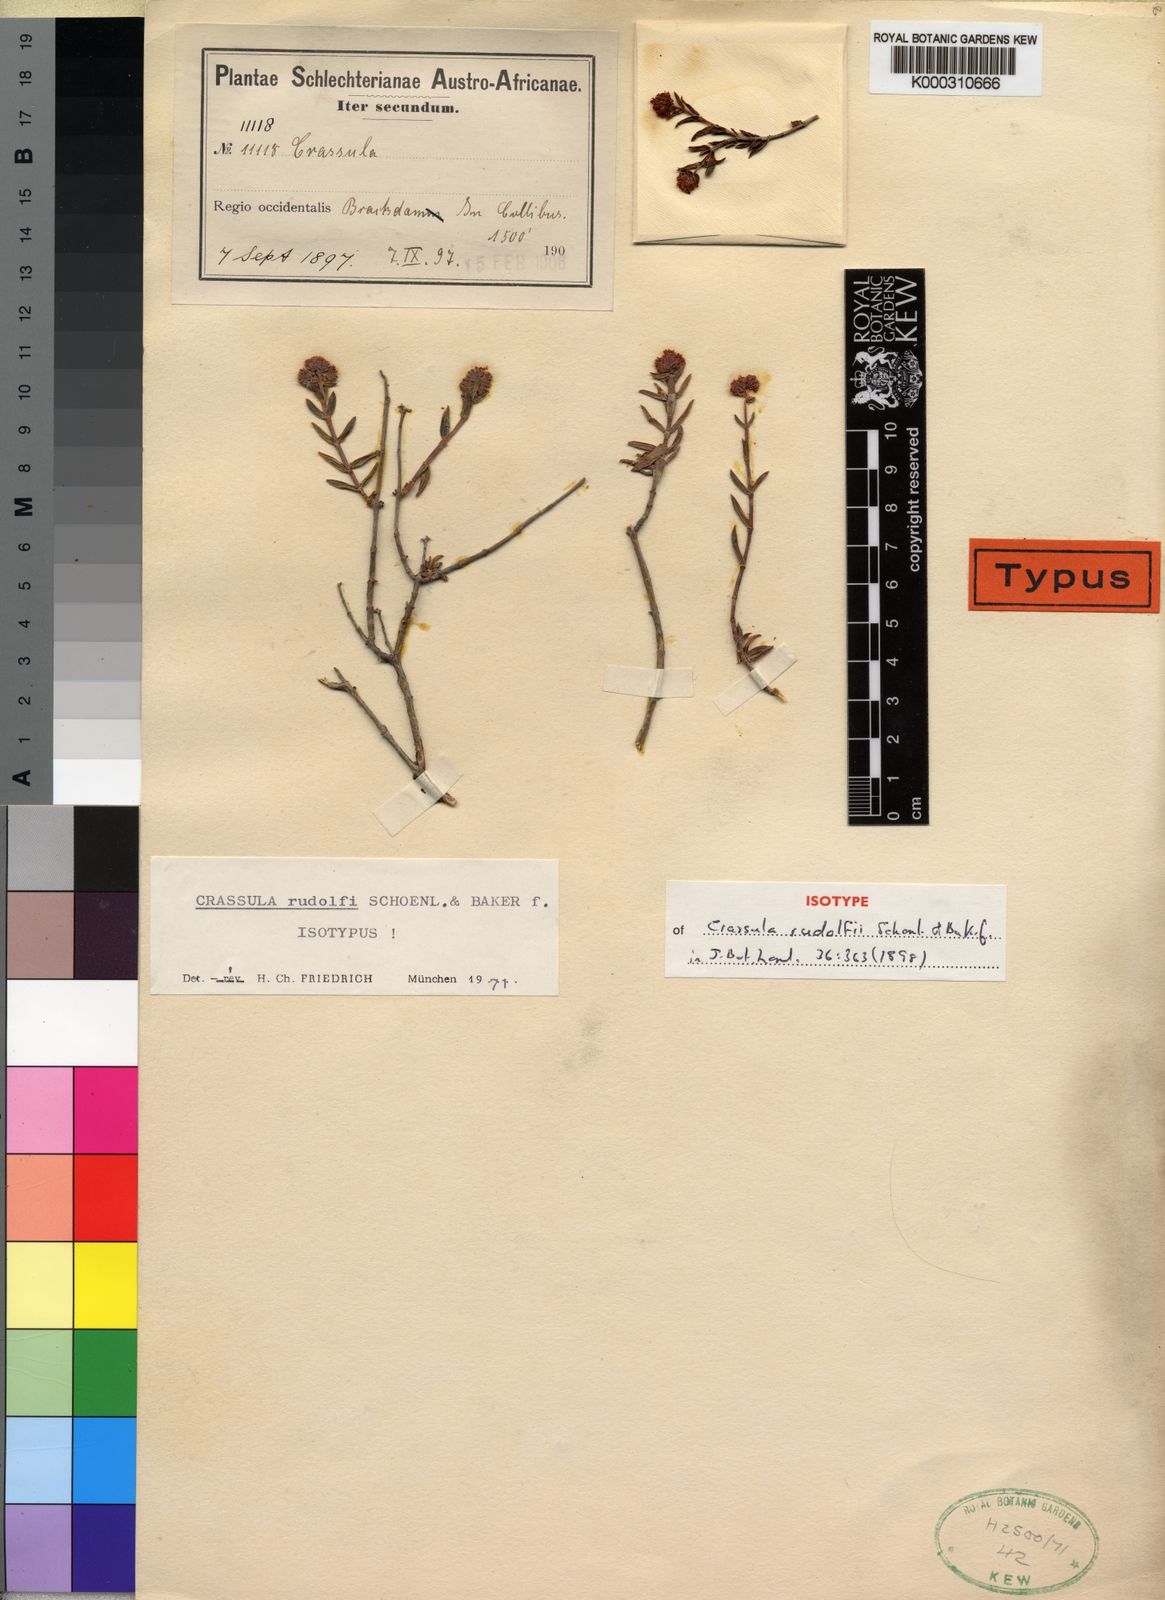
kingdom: Plantae
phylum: Tracheophyta
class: Magnoliopsida
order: Saxifragales
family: Crassulaceae
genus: Crassula
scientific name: Crassula
